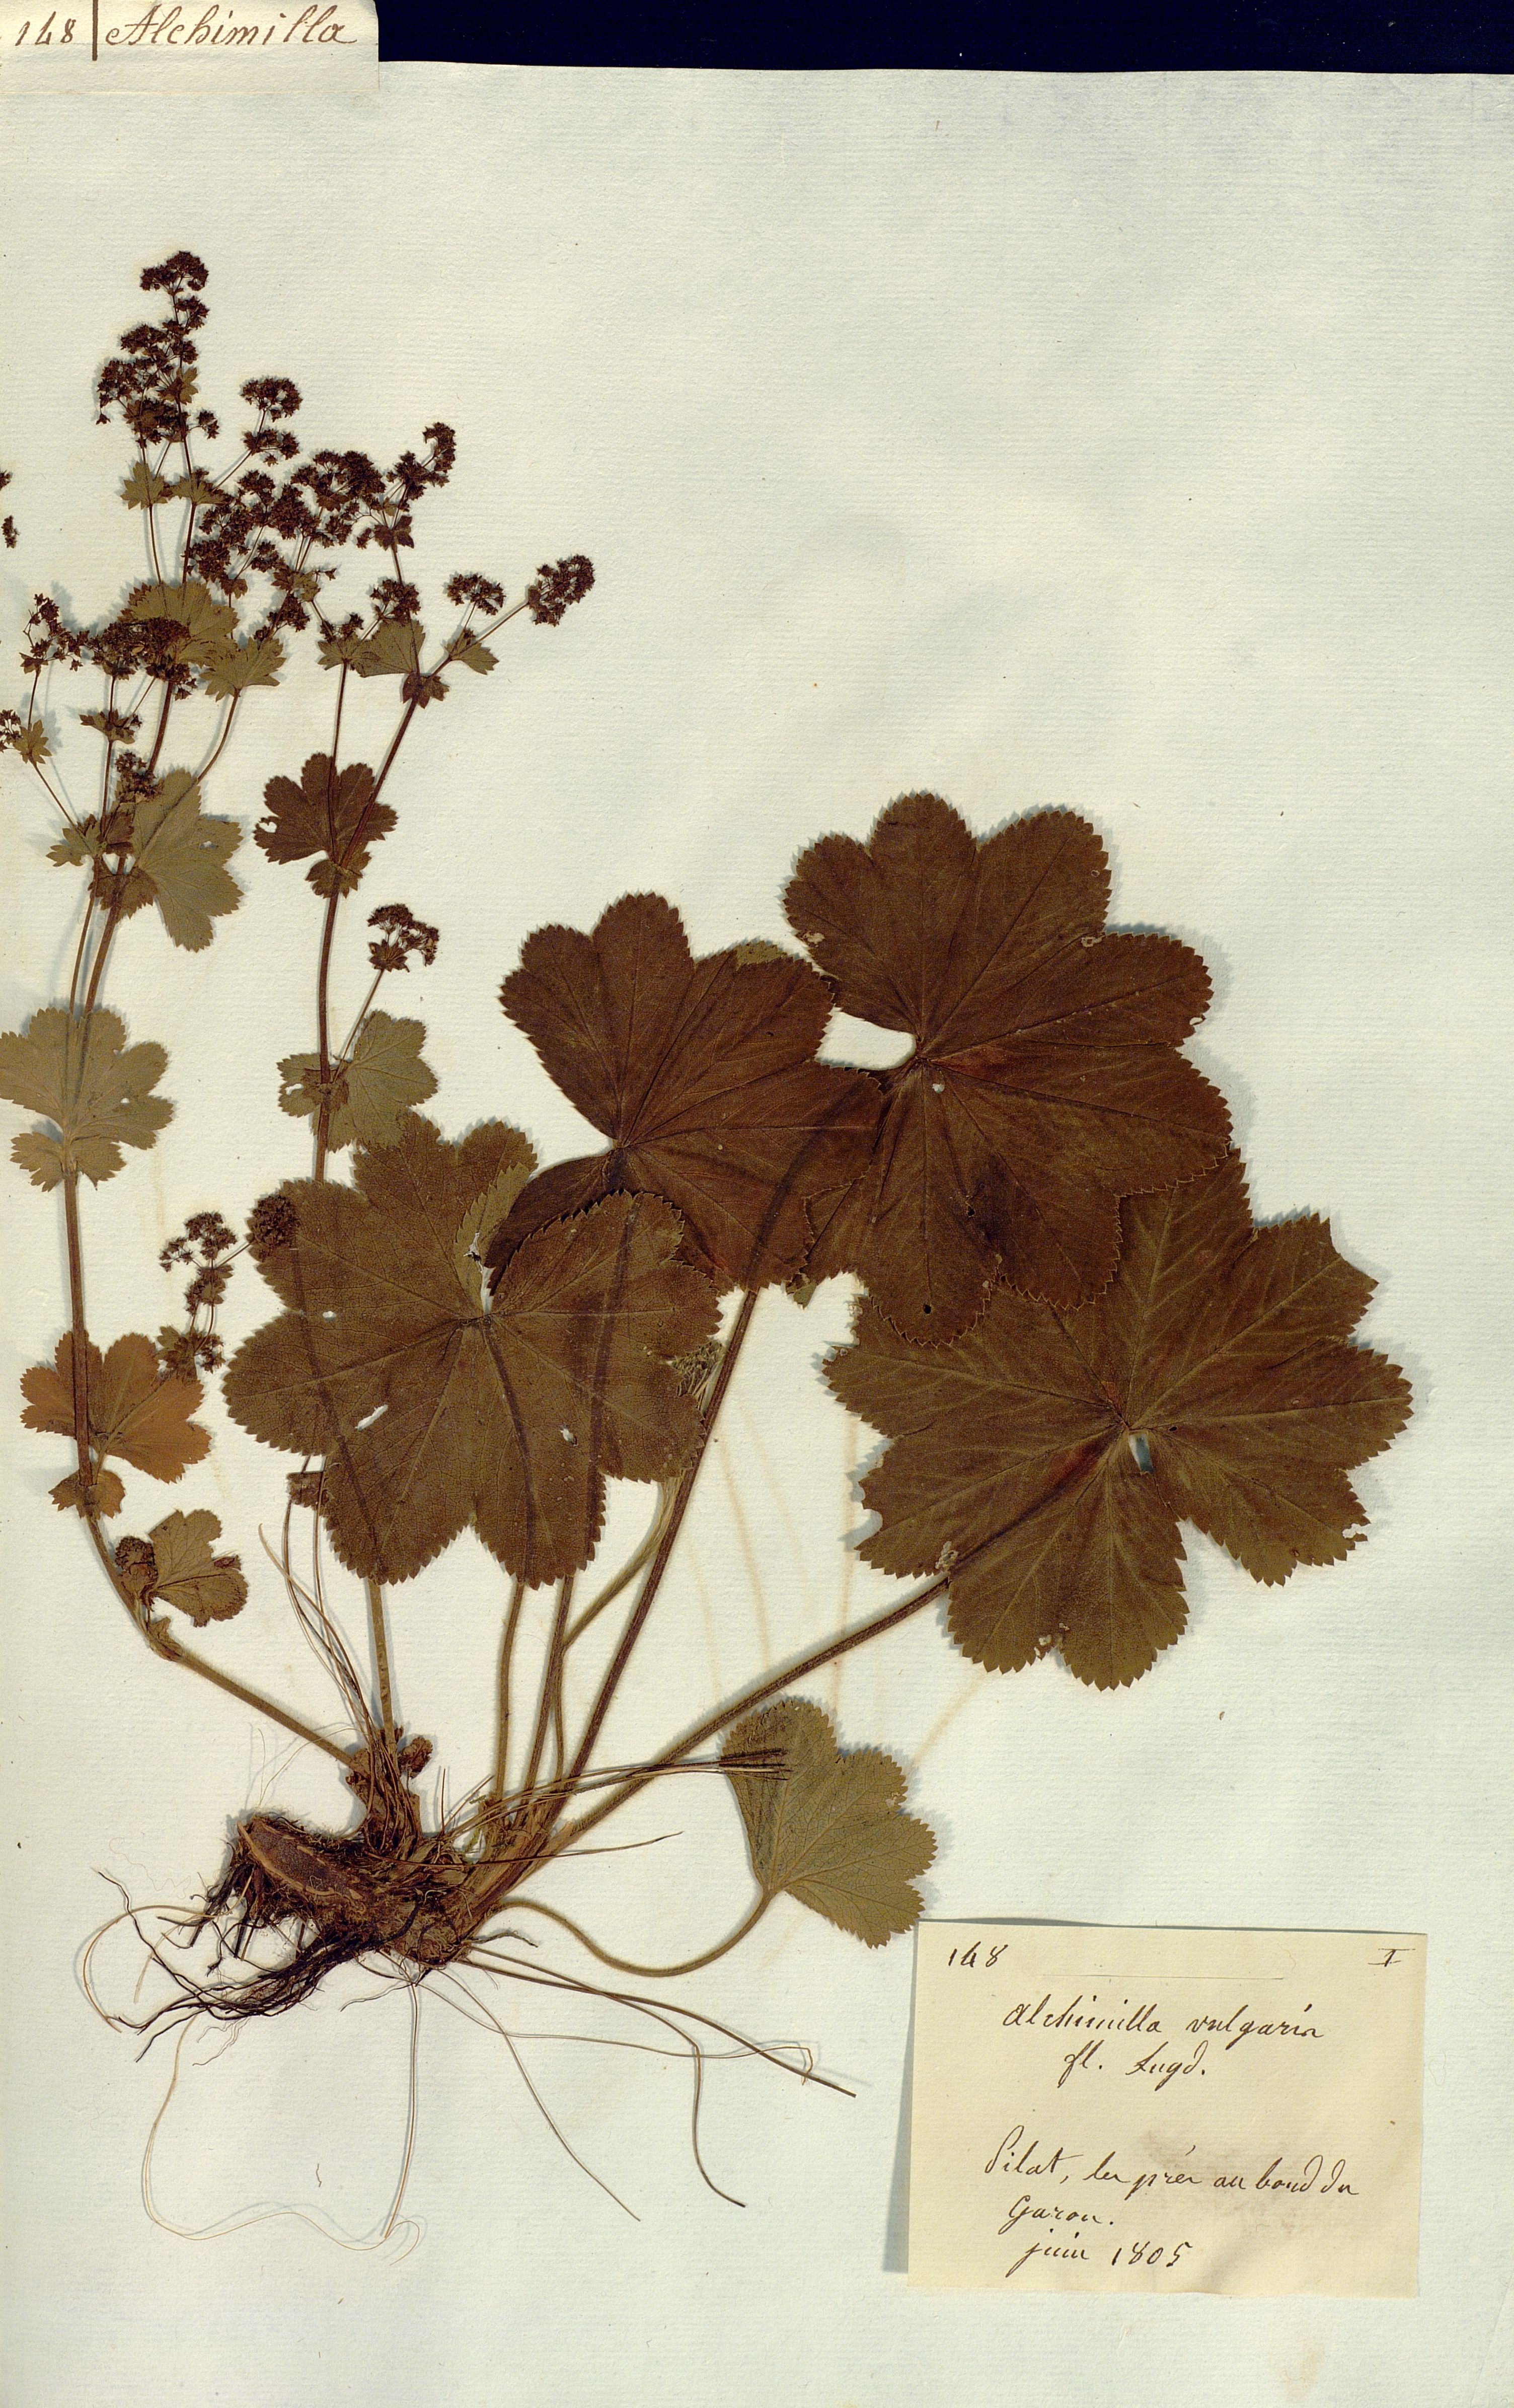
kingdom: Plantae
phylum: Tracheophyta
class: Magnoliopsida
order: Rosales
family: Rosaceae
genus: Alchemilla
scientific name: Alchemilla vulgaris
